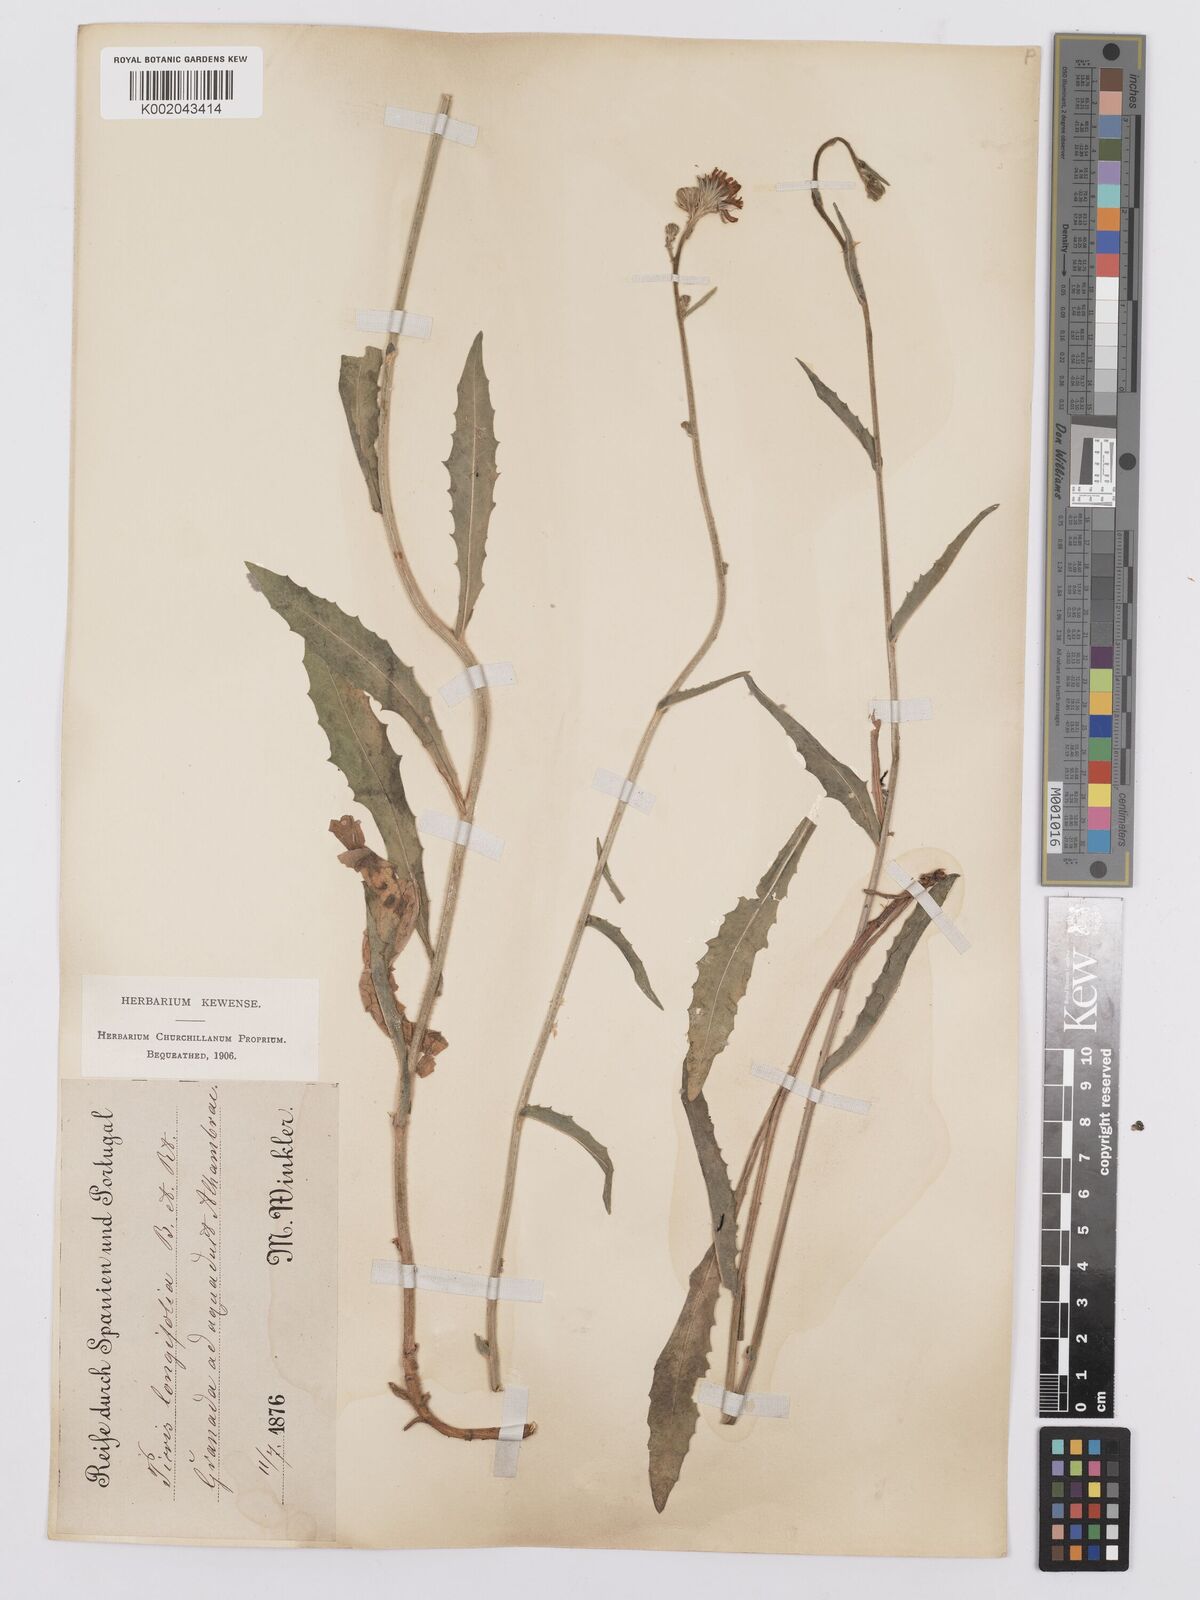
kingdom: Plantae
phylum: Tracheophyta
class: Magnoliopsida
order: Asterales
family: Asteraceae
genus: Picris
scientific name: Picris hieracioides
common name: Hawkweed oxtongue
